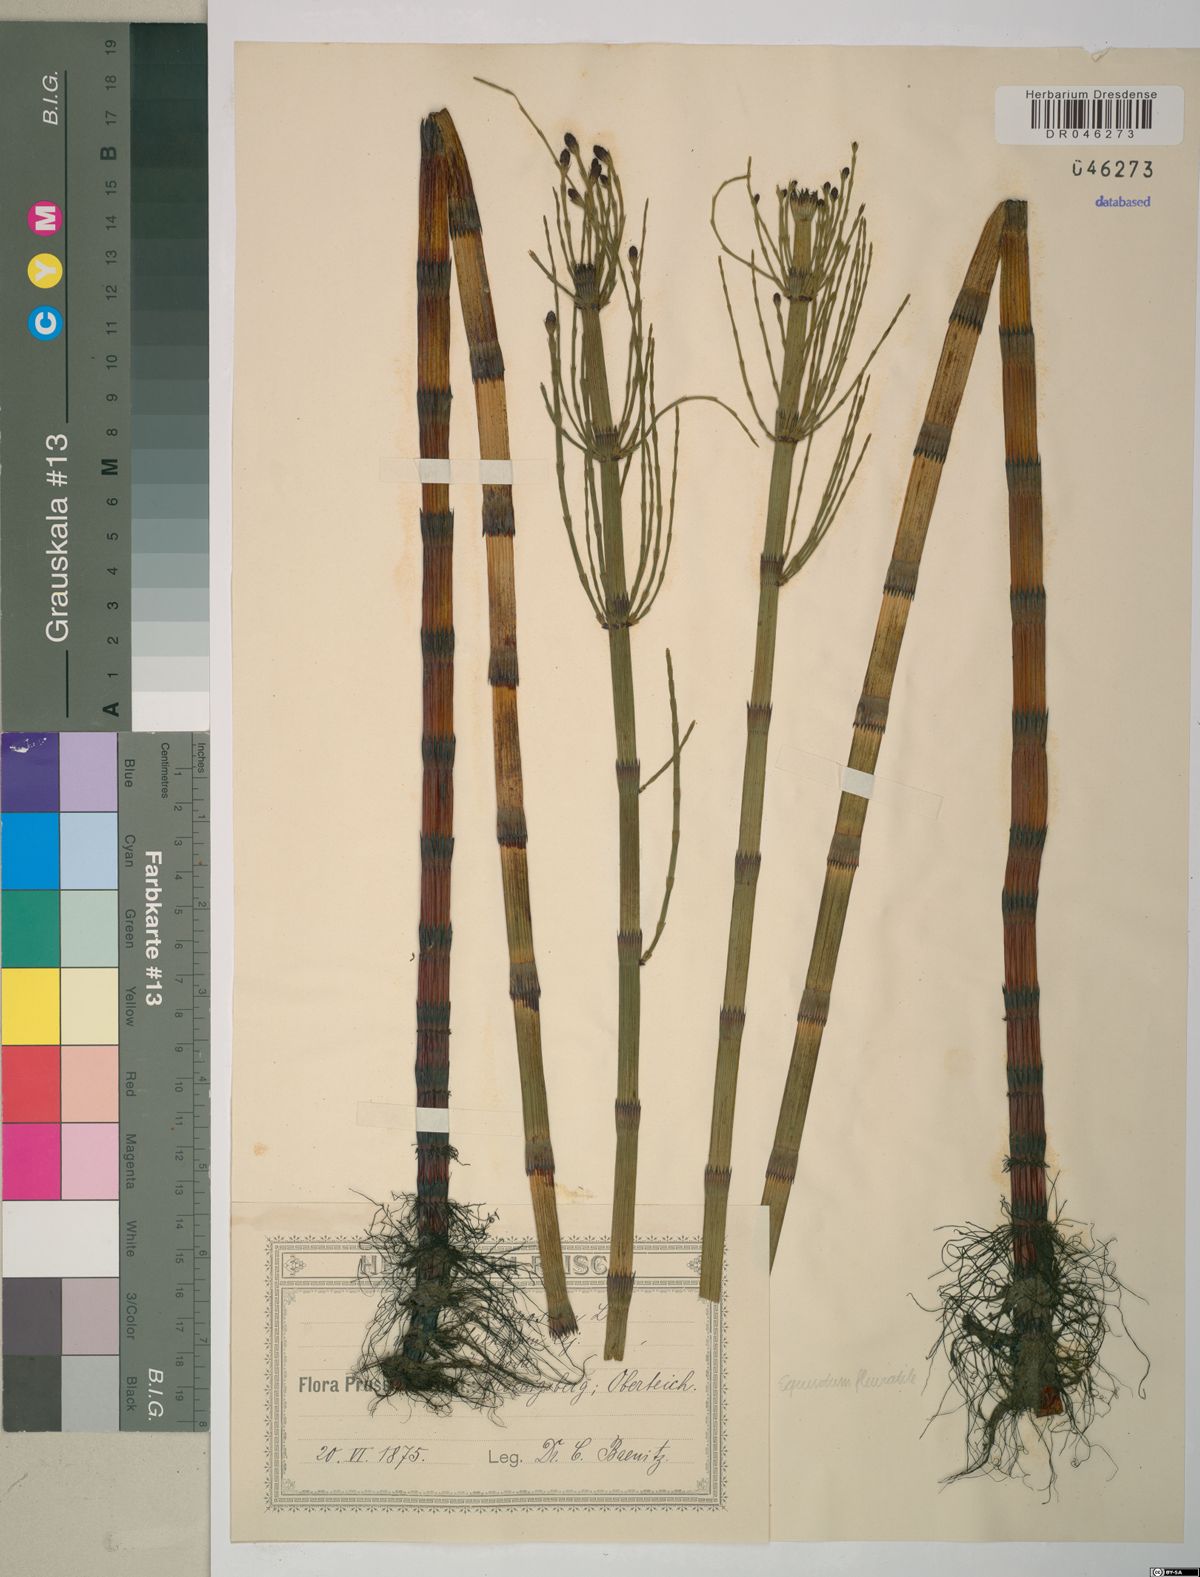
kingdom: Plantae
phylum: Tracheophyta
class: Polypodiopsida
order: Equisetales
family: Equisetaceae
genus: Equisetum
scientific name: Equisetum fluviatile
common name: Water horsetail
